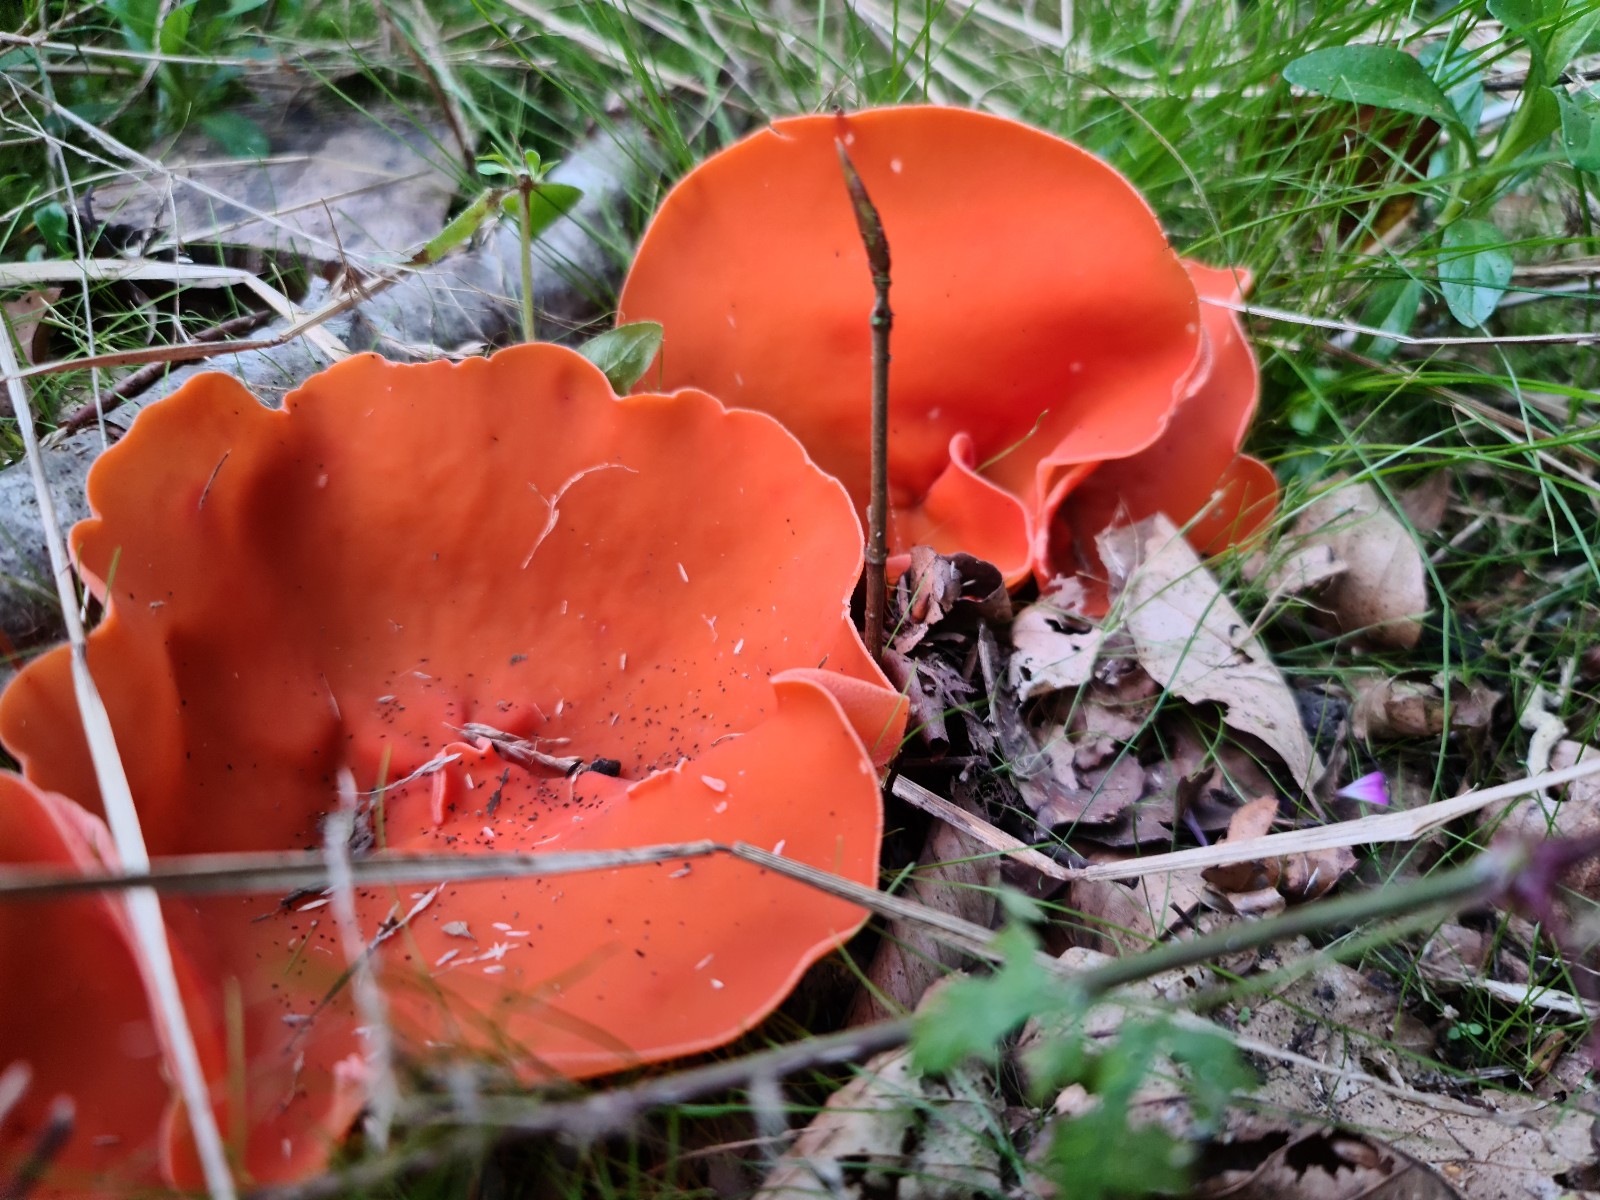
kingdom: Fungi
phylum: Ascomycota
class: Pezizomycetes
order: Pezizales
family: Pyronemataceae
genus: Aleuria
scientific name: Aleuria aurantia
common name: almindelig orangebæger
